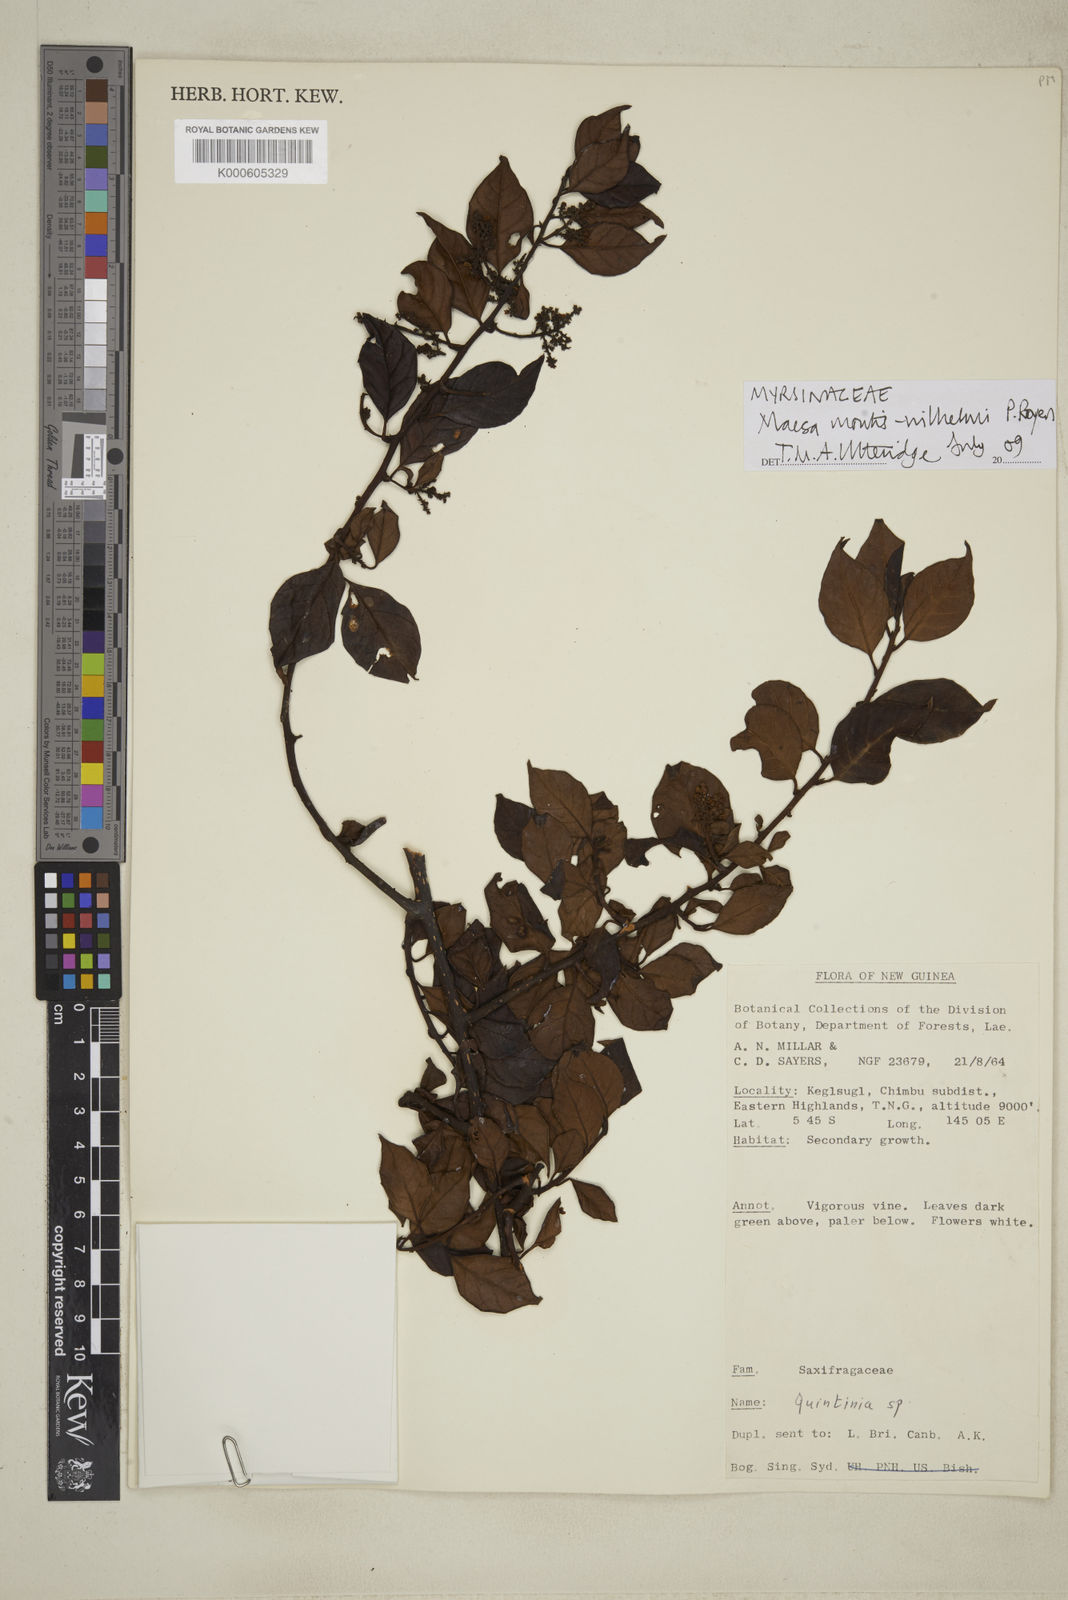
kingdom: Plantae
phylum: Tracheophyta
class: Magnoliopsida
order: Ericales
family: Primulaceae
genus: Maesa
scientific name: Maesa montis-wilhelmi
